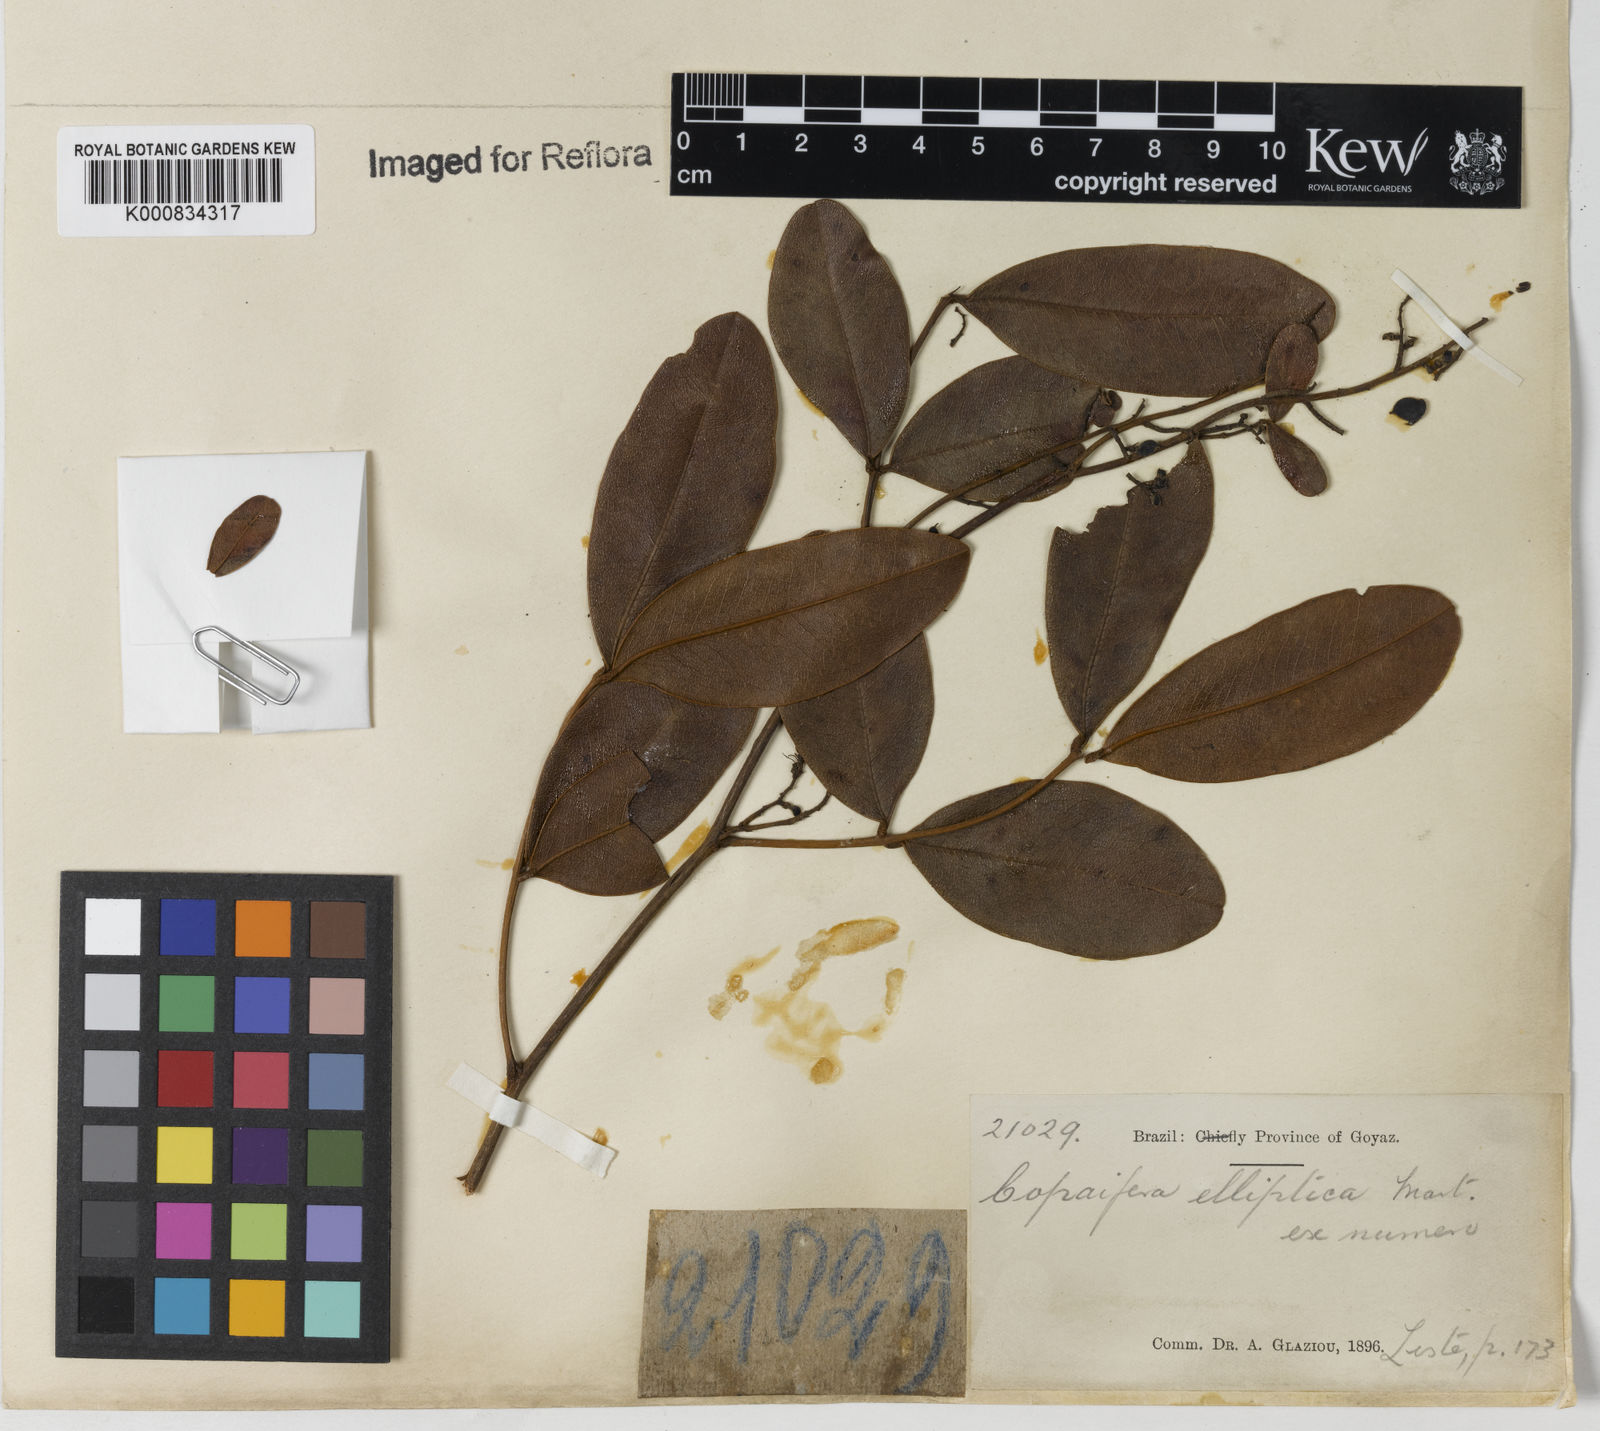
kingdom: Plantae
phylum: Tracheophyta
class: Magnoliopsida
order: Fabales
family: Fabaceae
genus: Copaifera
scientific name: Copaifera elliptica
